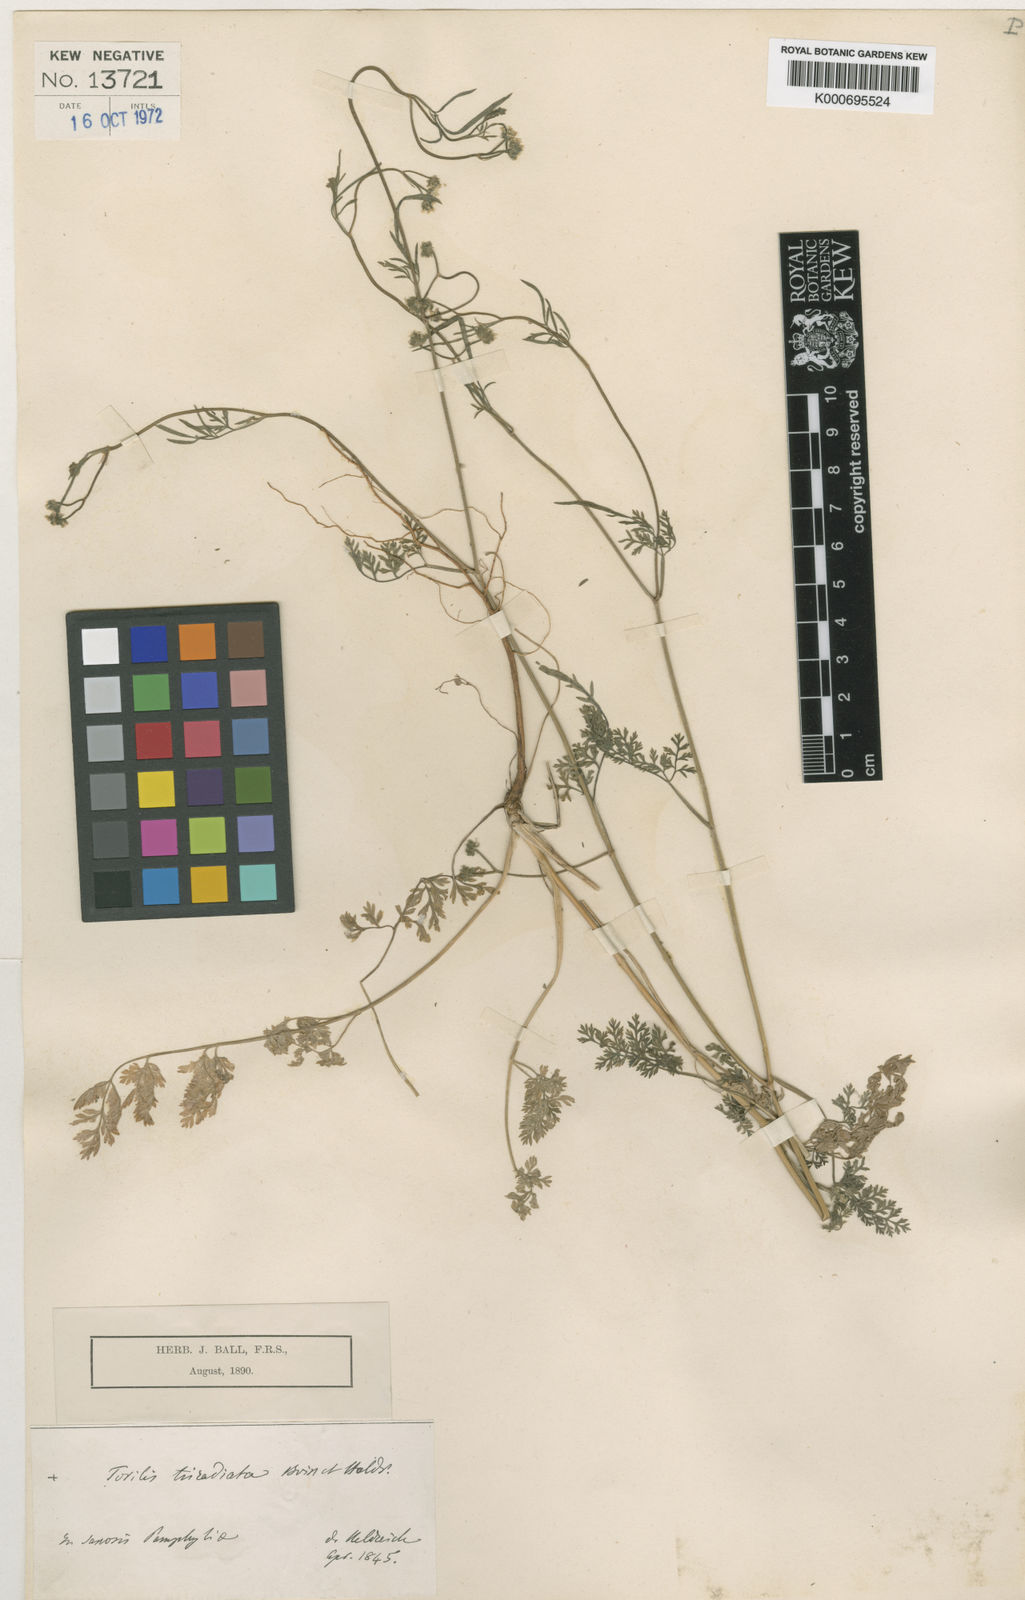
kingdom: Plantae
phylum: Tracheophyta
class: Magnoliopsida
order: Apiales
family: Apiaceae
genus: Torilis
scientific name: Torilis triradiata
